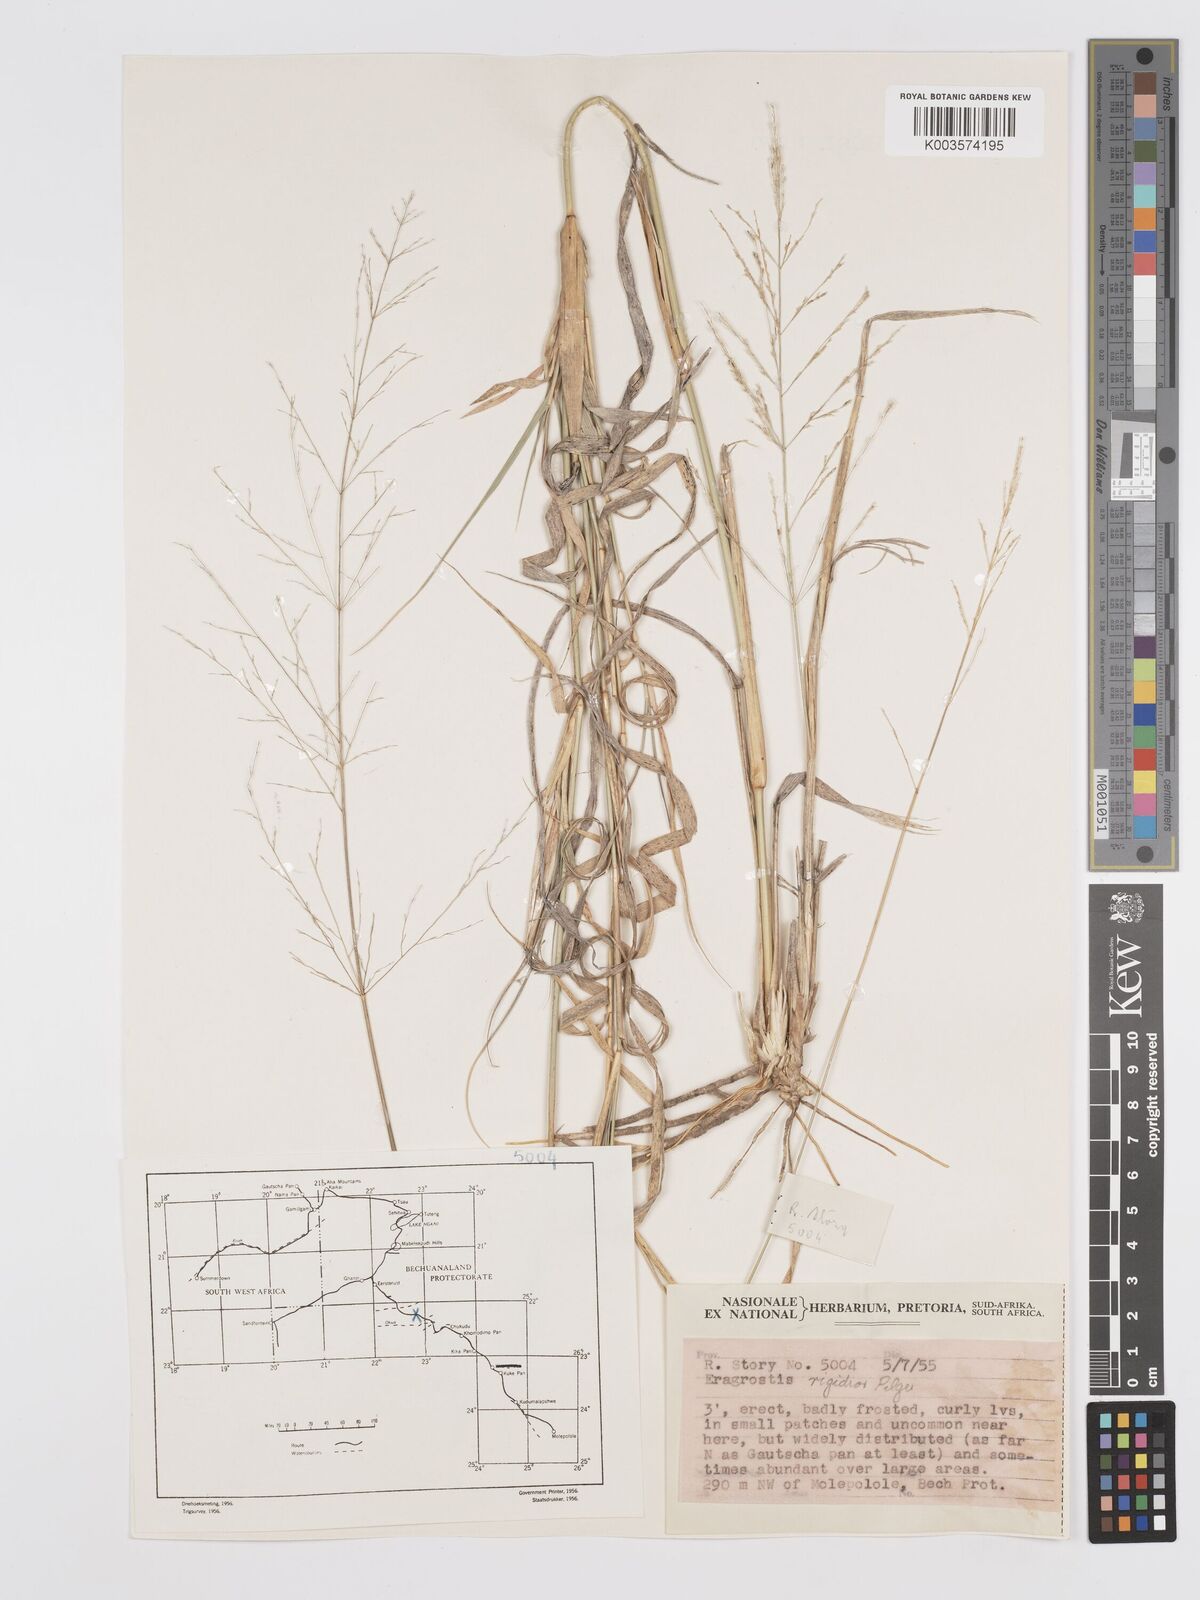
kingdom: Plantae
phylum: Tracheophyta
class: Liliopsida
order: Poales
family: Poaceae
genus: Eragrostis
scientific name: Eragrostis cylindriflora
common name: Cylinderflower lovegrass
